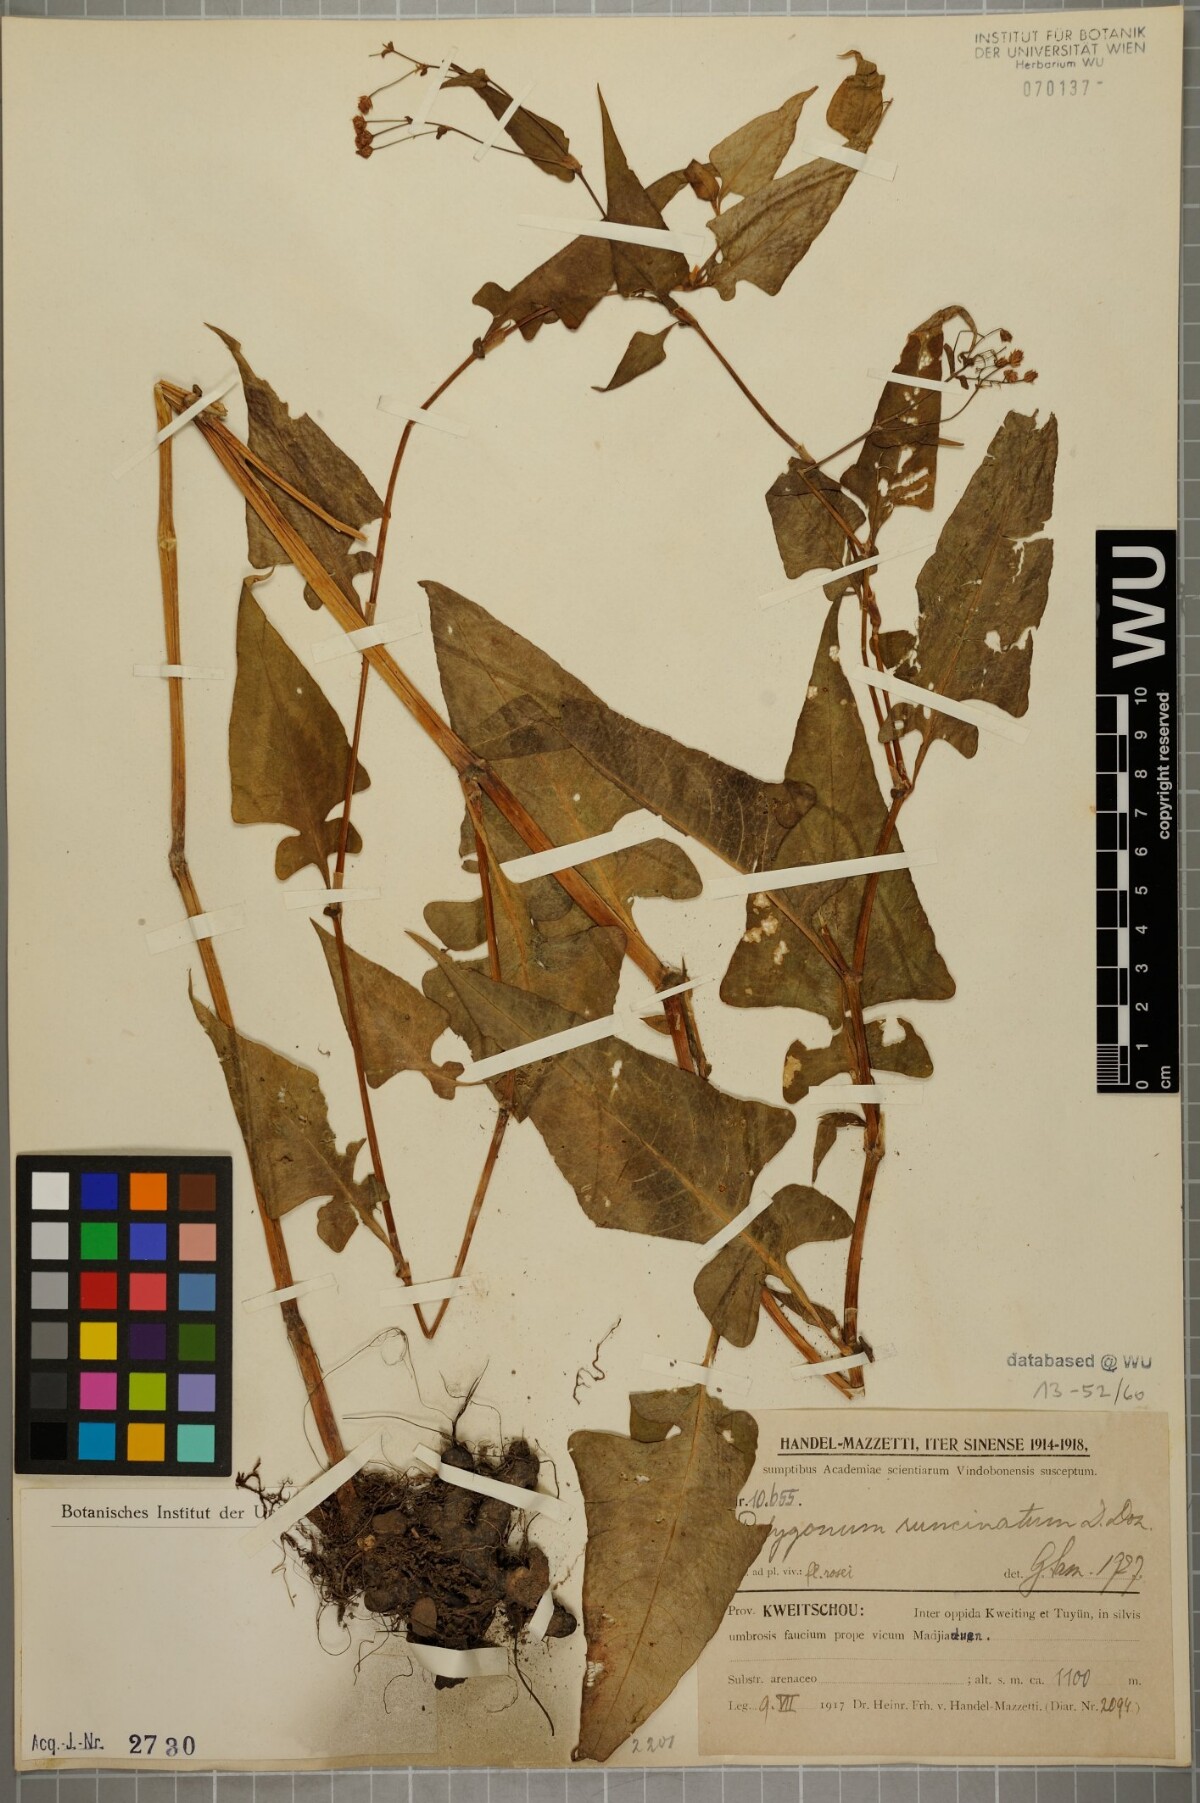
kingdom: Plantae
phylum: Tracheophyta
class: Magnoliopsida
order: Caryophyllales
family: Polygonaceae
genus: Persicaria
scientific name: Persicaria runcinata
